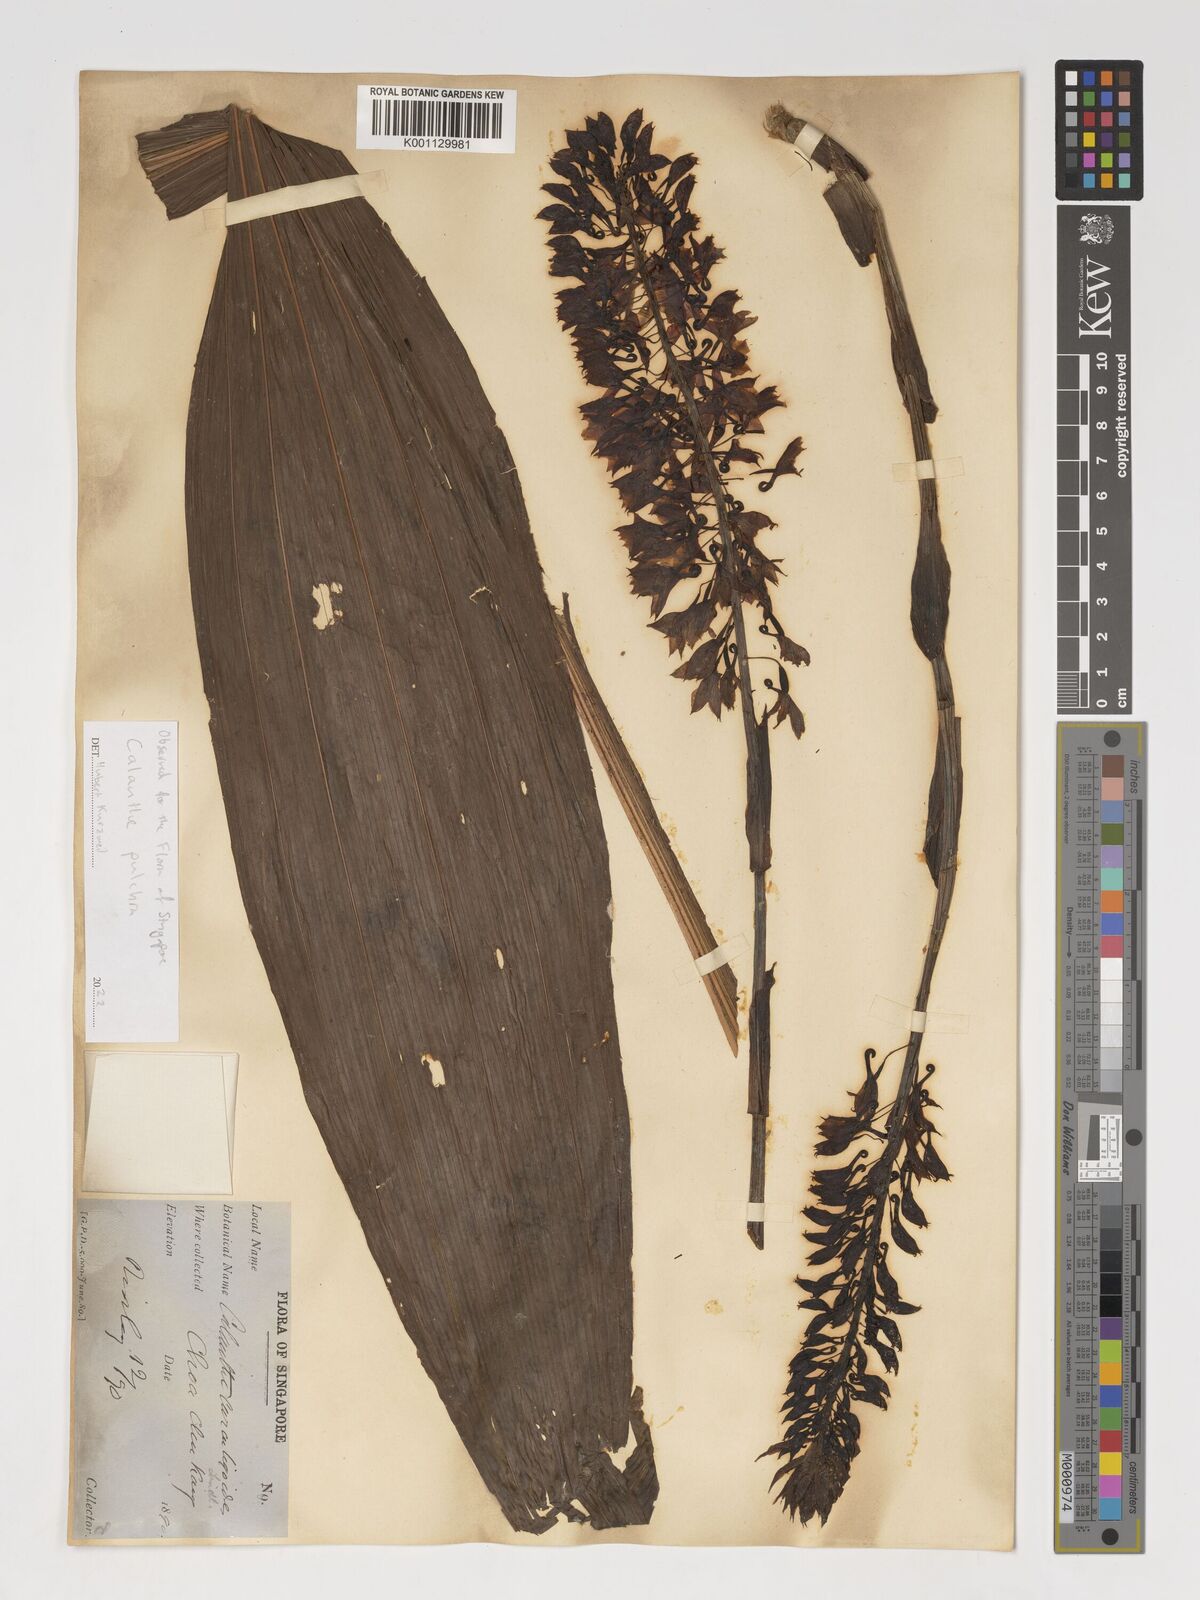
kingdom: Plantae
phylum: Tracheophyta
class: Liliopsida
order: Asparagales
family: Orchidaceae
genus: Calanthe
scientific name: Calanthe pulchra
